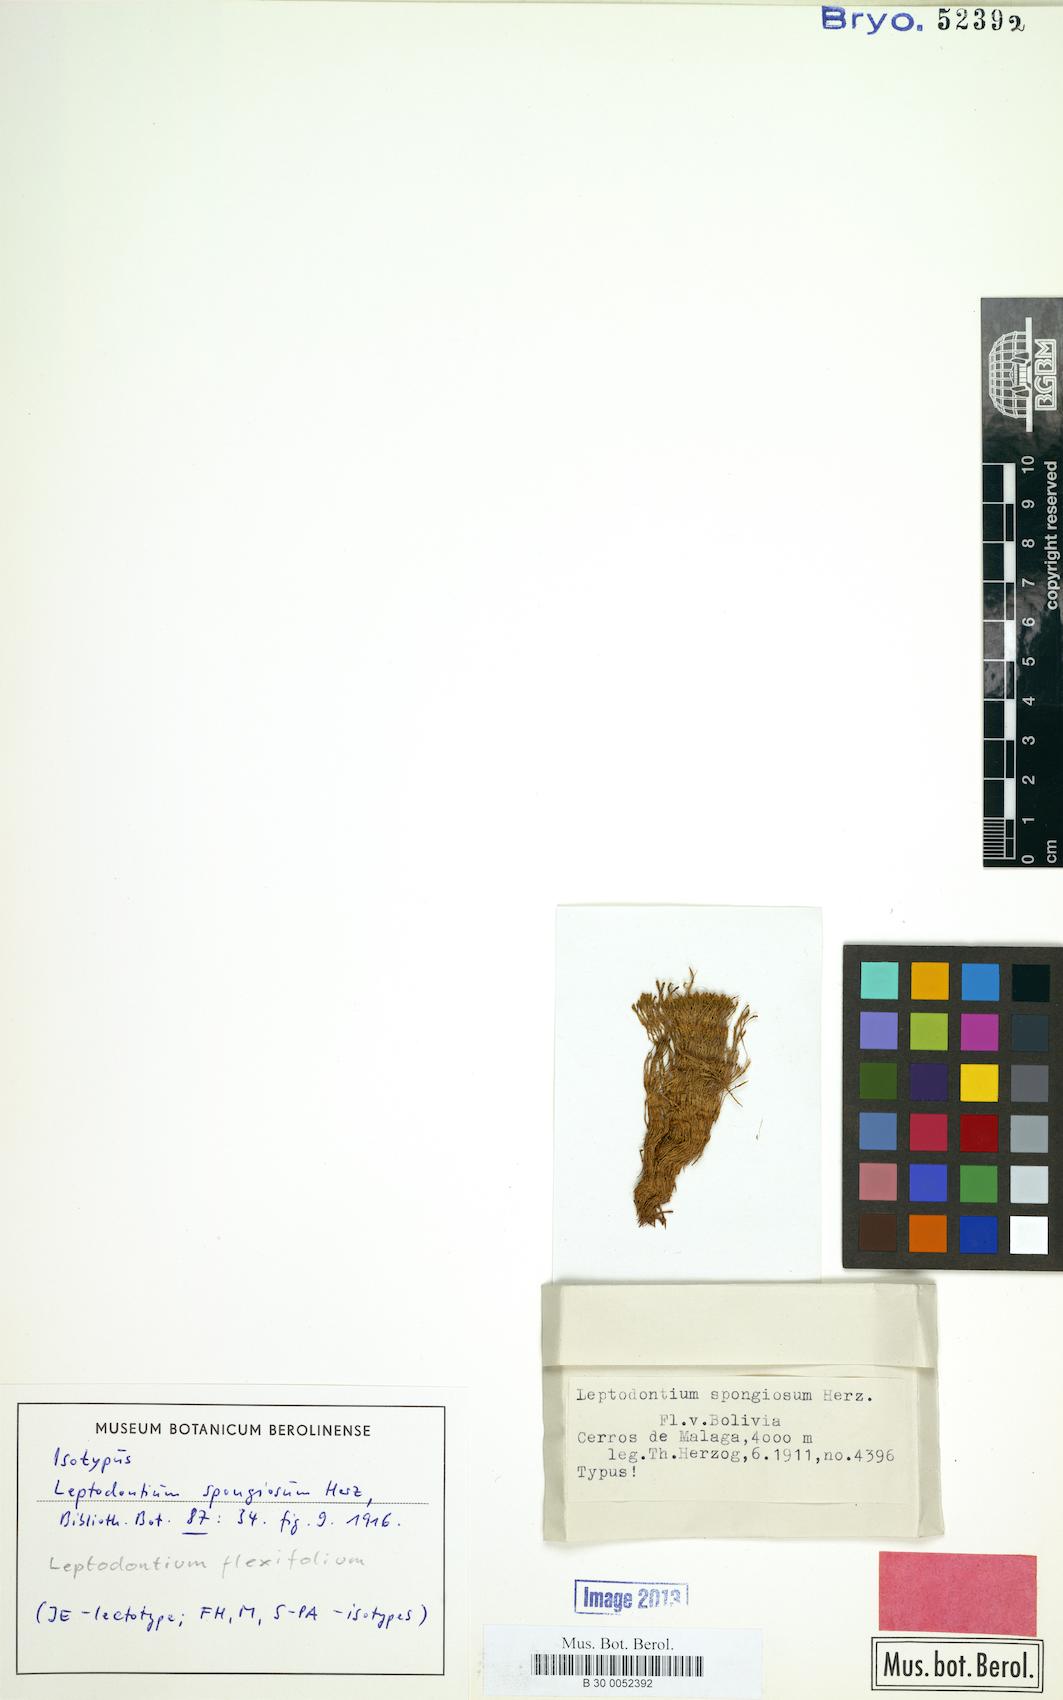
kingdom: Plantae
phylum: Bryophyta
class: Bryopsida
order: Pottiales
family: Pottiaceae
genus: Leptodontium
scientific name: Leptodontium flexifolium
